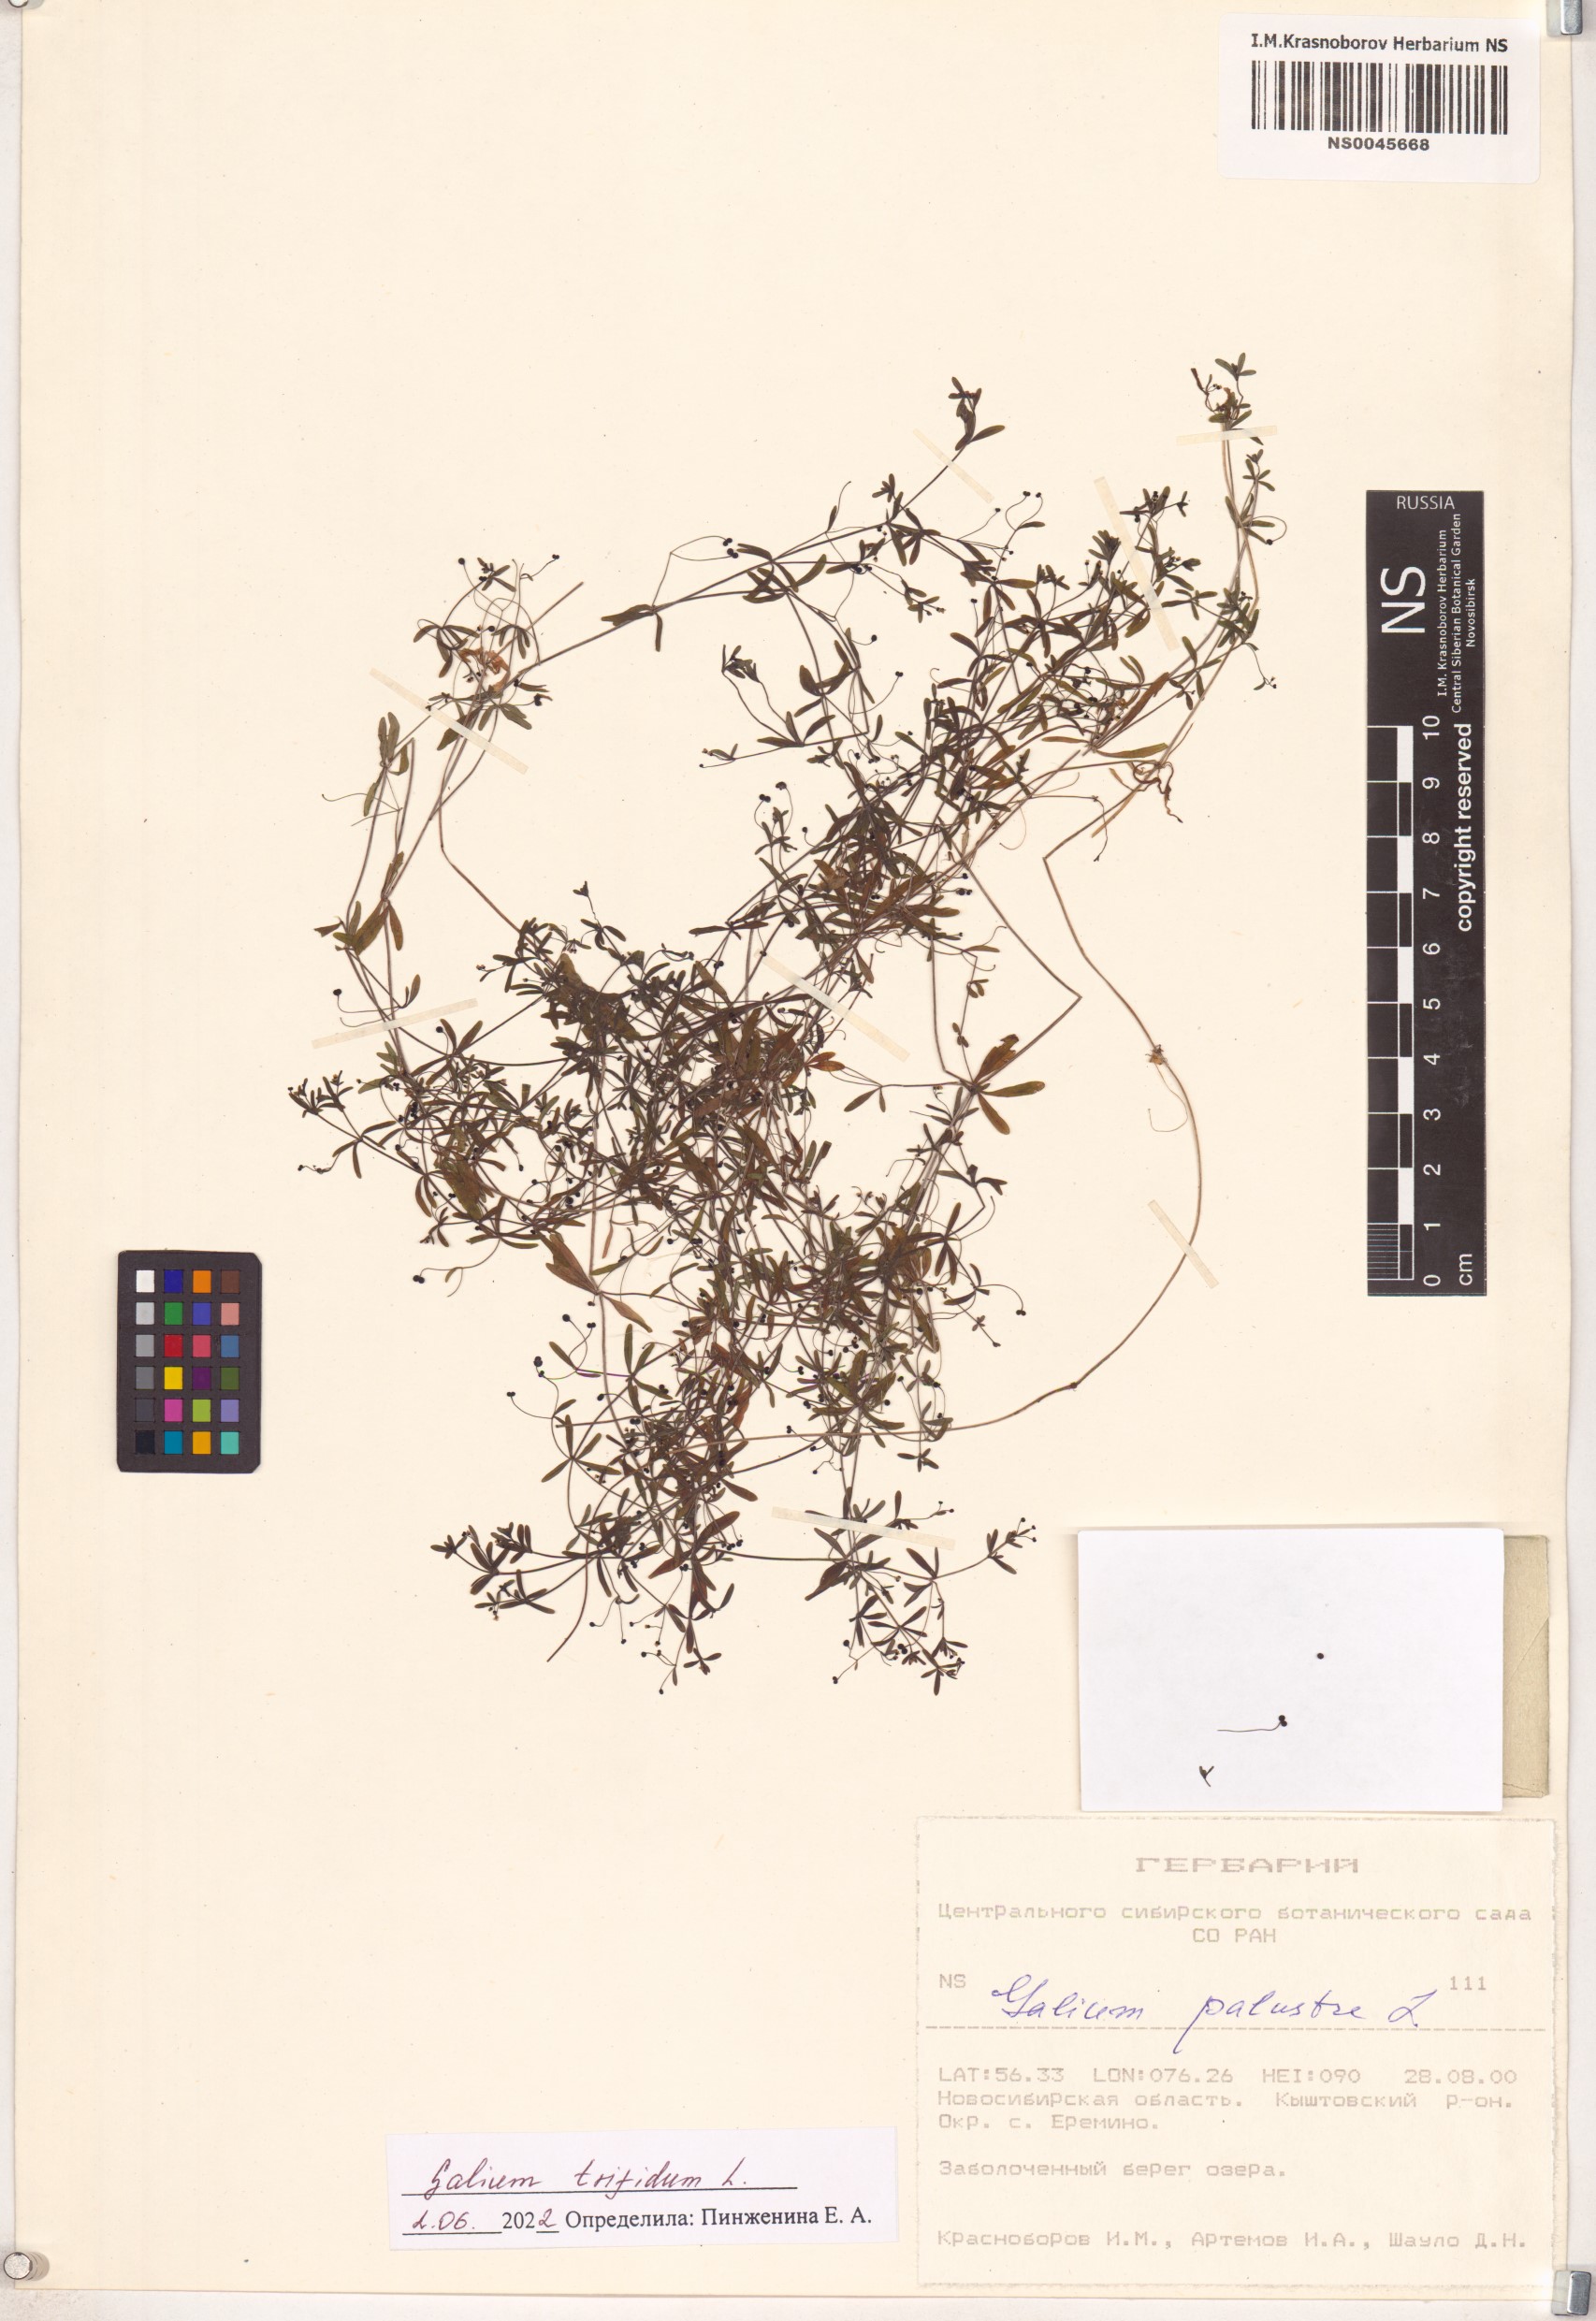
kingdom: Plantae
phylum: Tracheophyta
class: Magnoliopsida
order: Gentianales
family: Rubiaceae
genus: Galium
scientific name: Galium trifidum
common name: Small bedstraw
